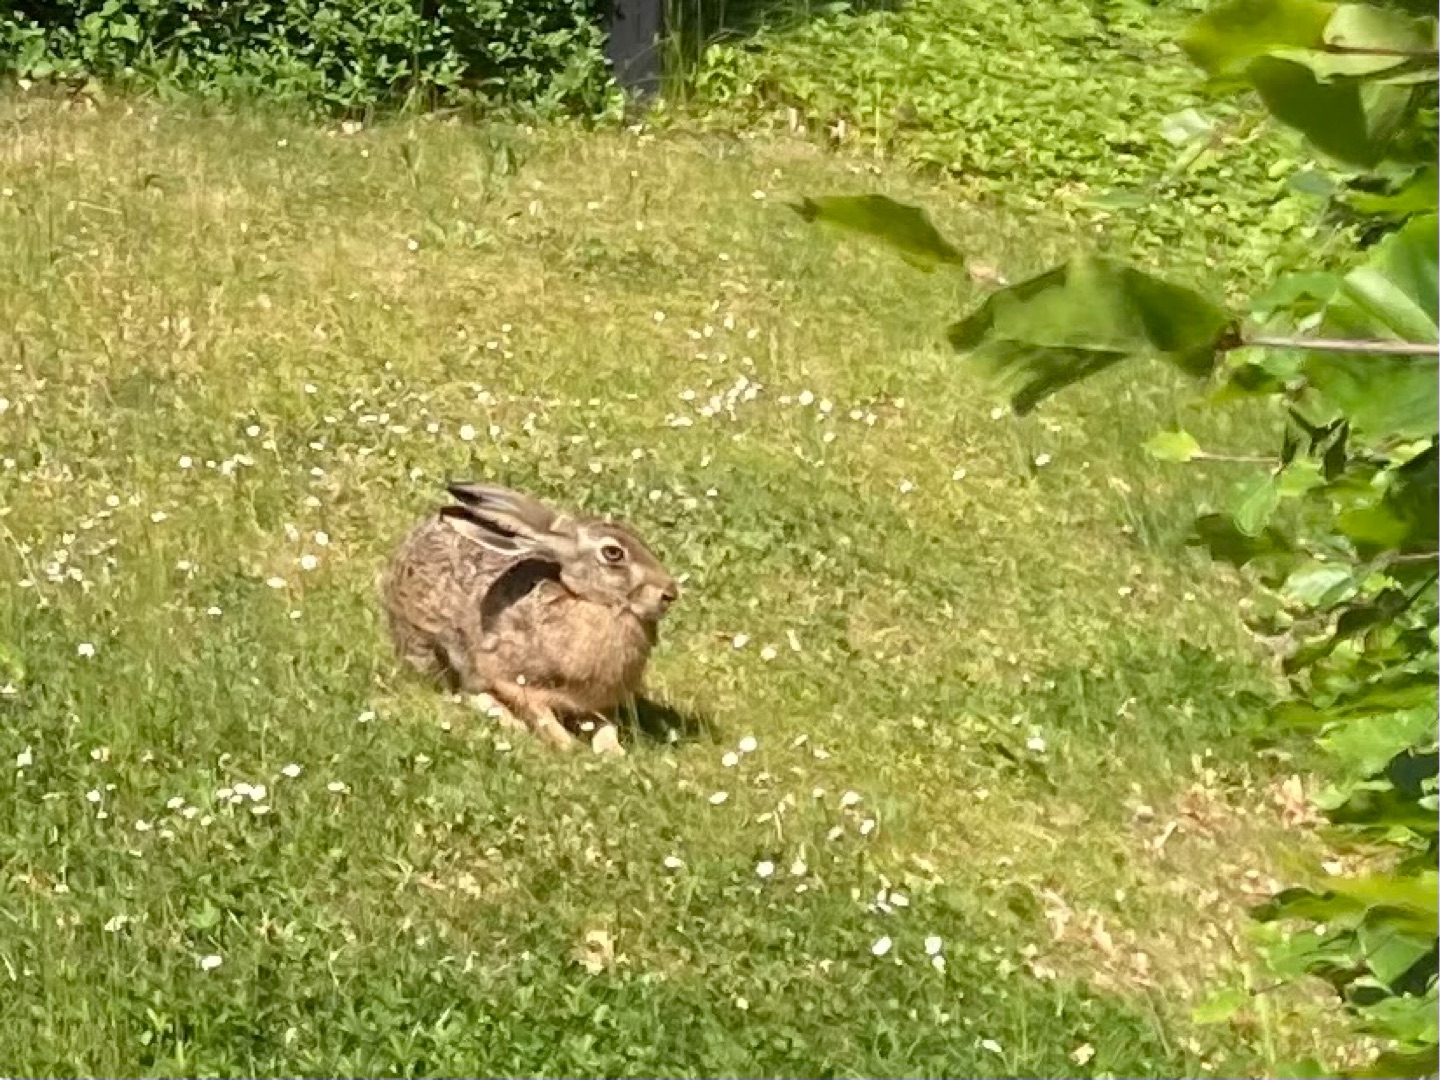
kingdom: Animalia
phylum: Chordata
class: Mammalia
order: Lagomorpha
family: Leporidae
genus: Lepus
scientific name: Lepus europaeus
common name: Hare
